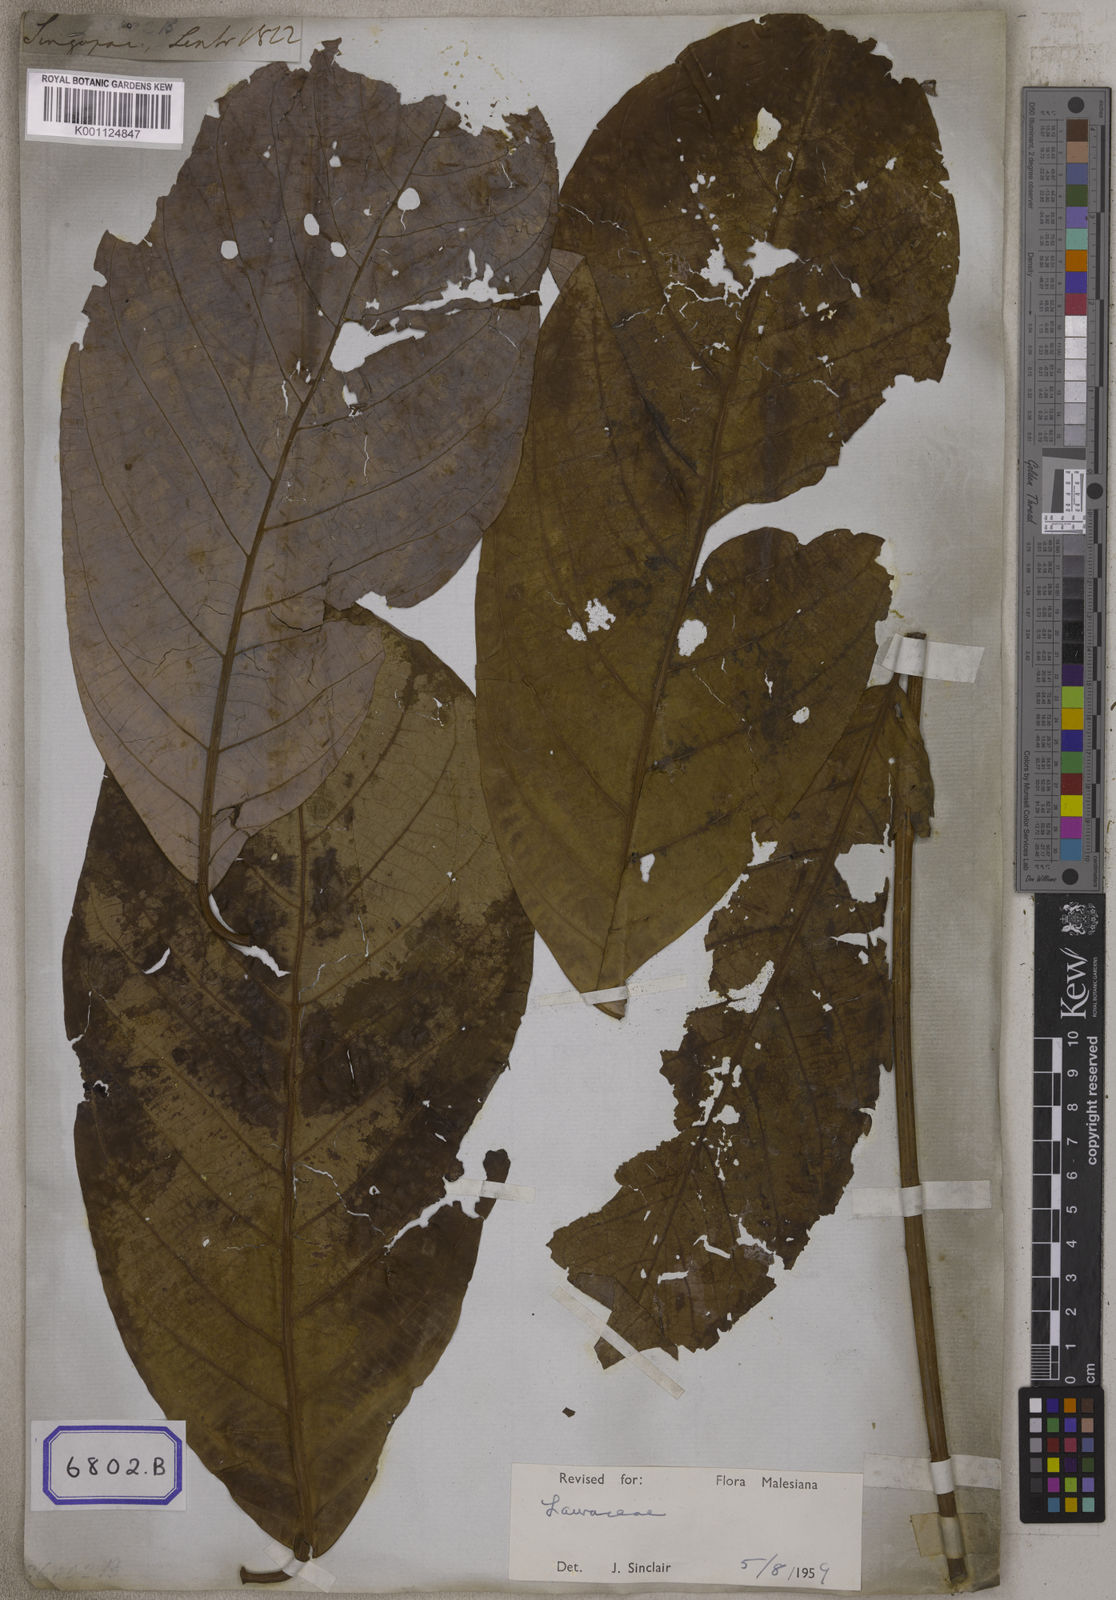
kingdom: Plantae
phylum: Tracheophyta
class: Magnoliopsida
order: Magnoliales
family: Myristicaceae
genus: Myristica
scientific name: Myristica
